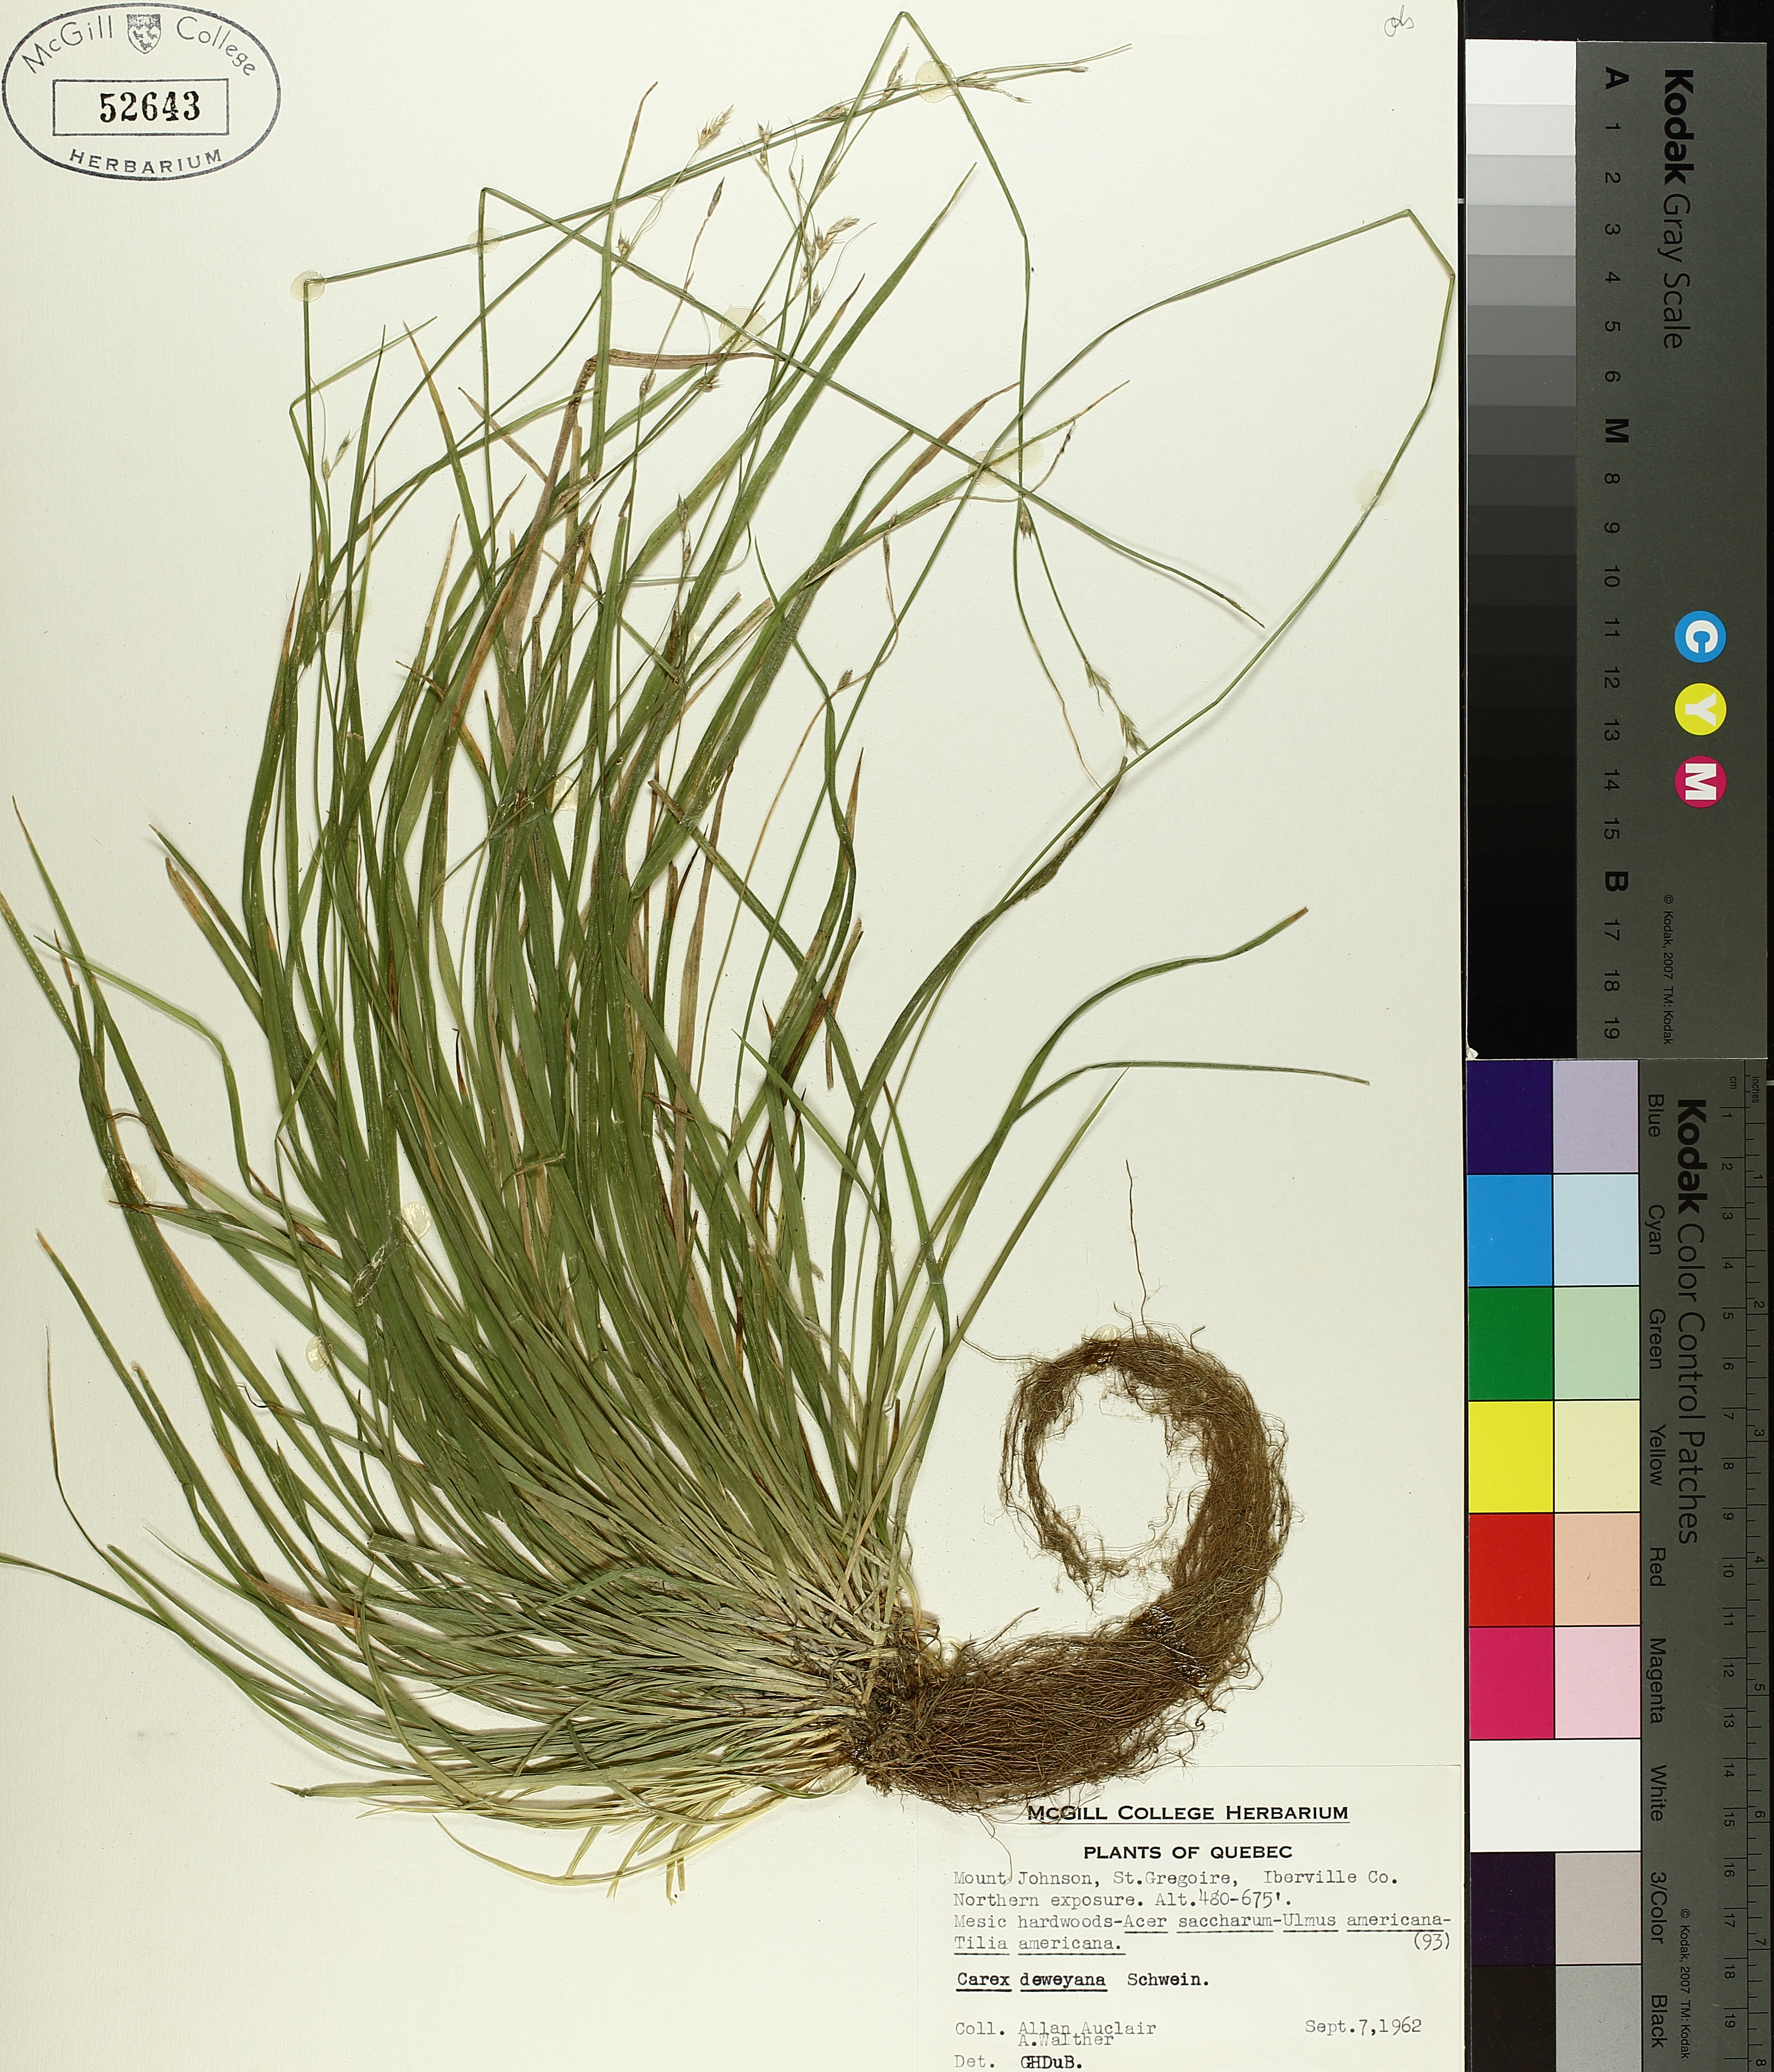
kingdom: Plantae
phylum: Tracheophyta
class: Liliopsida
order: Poales
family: Cyperaceae
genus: Carex
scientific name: Carex deweyana
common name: Dewey's sedge
